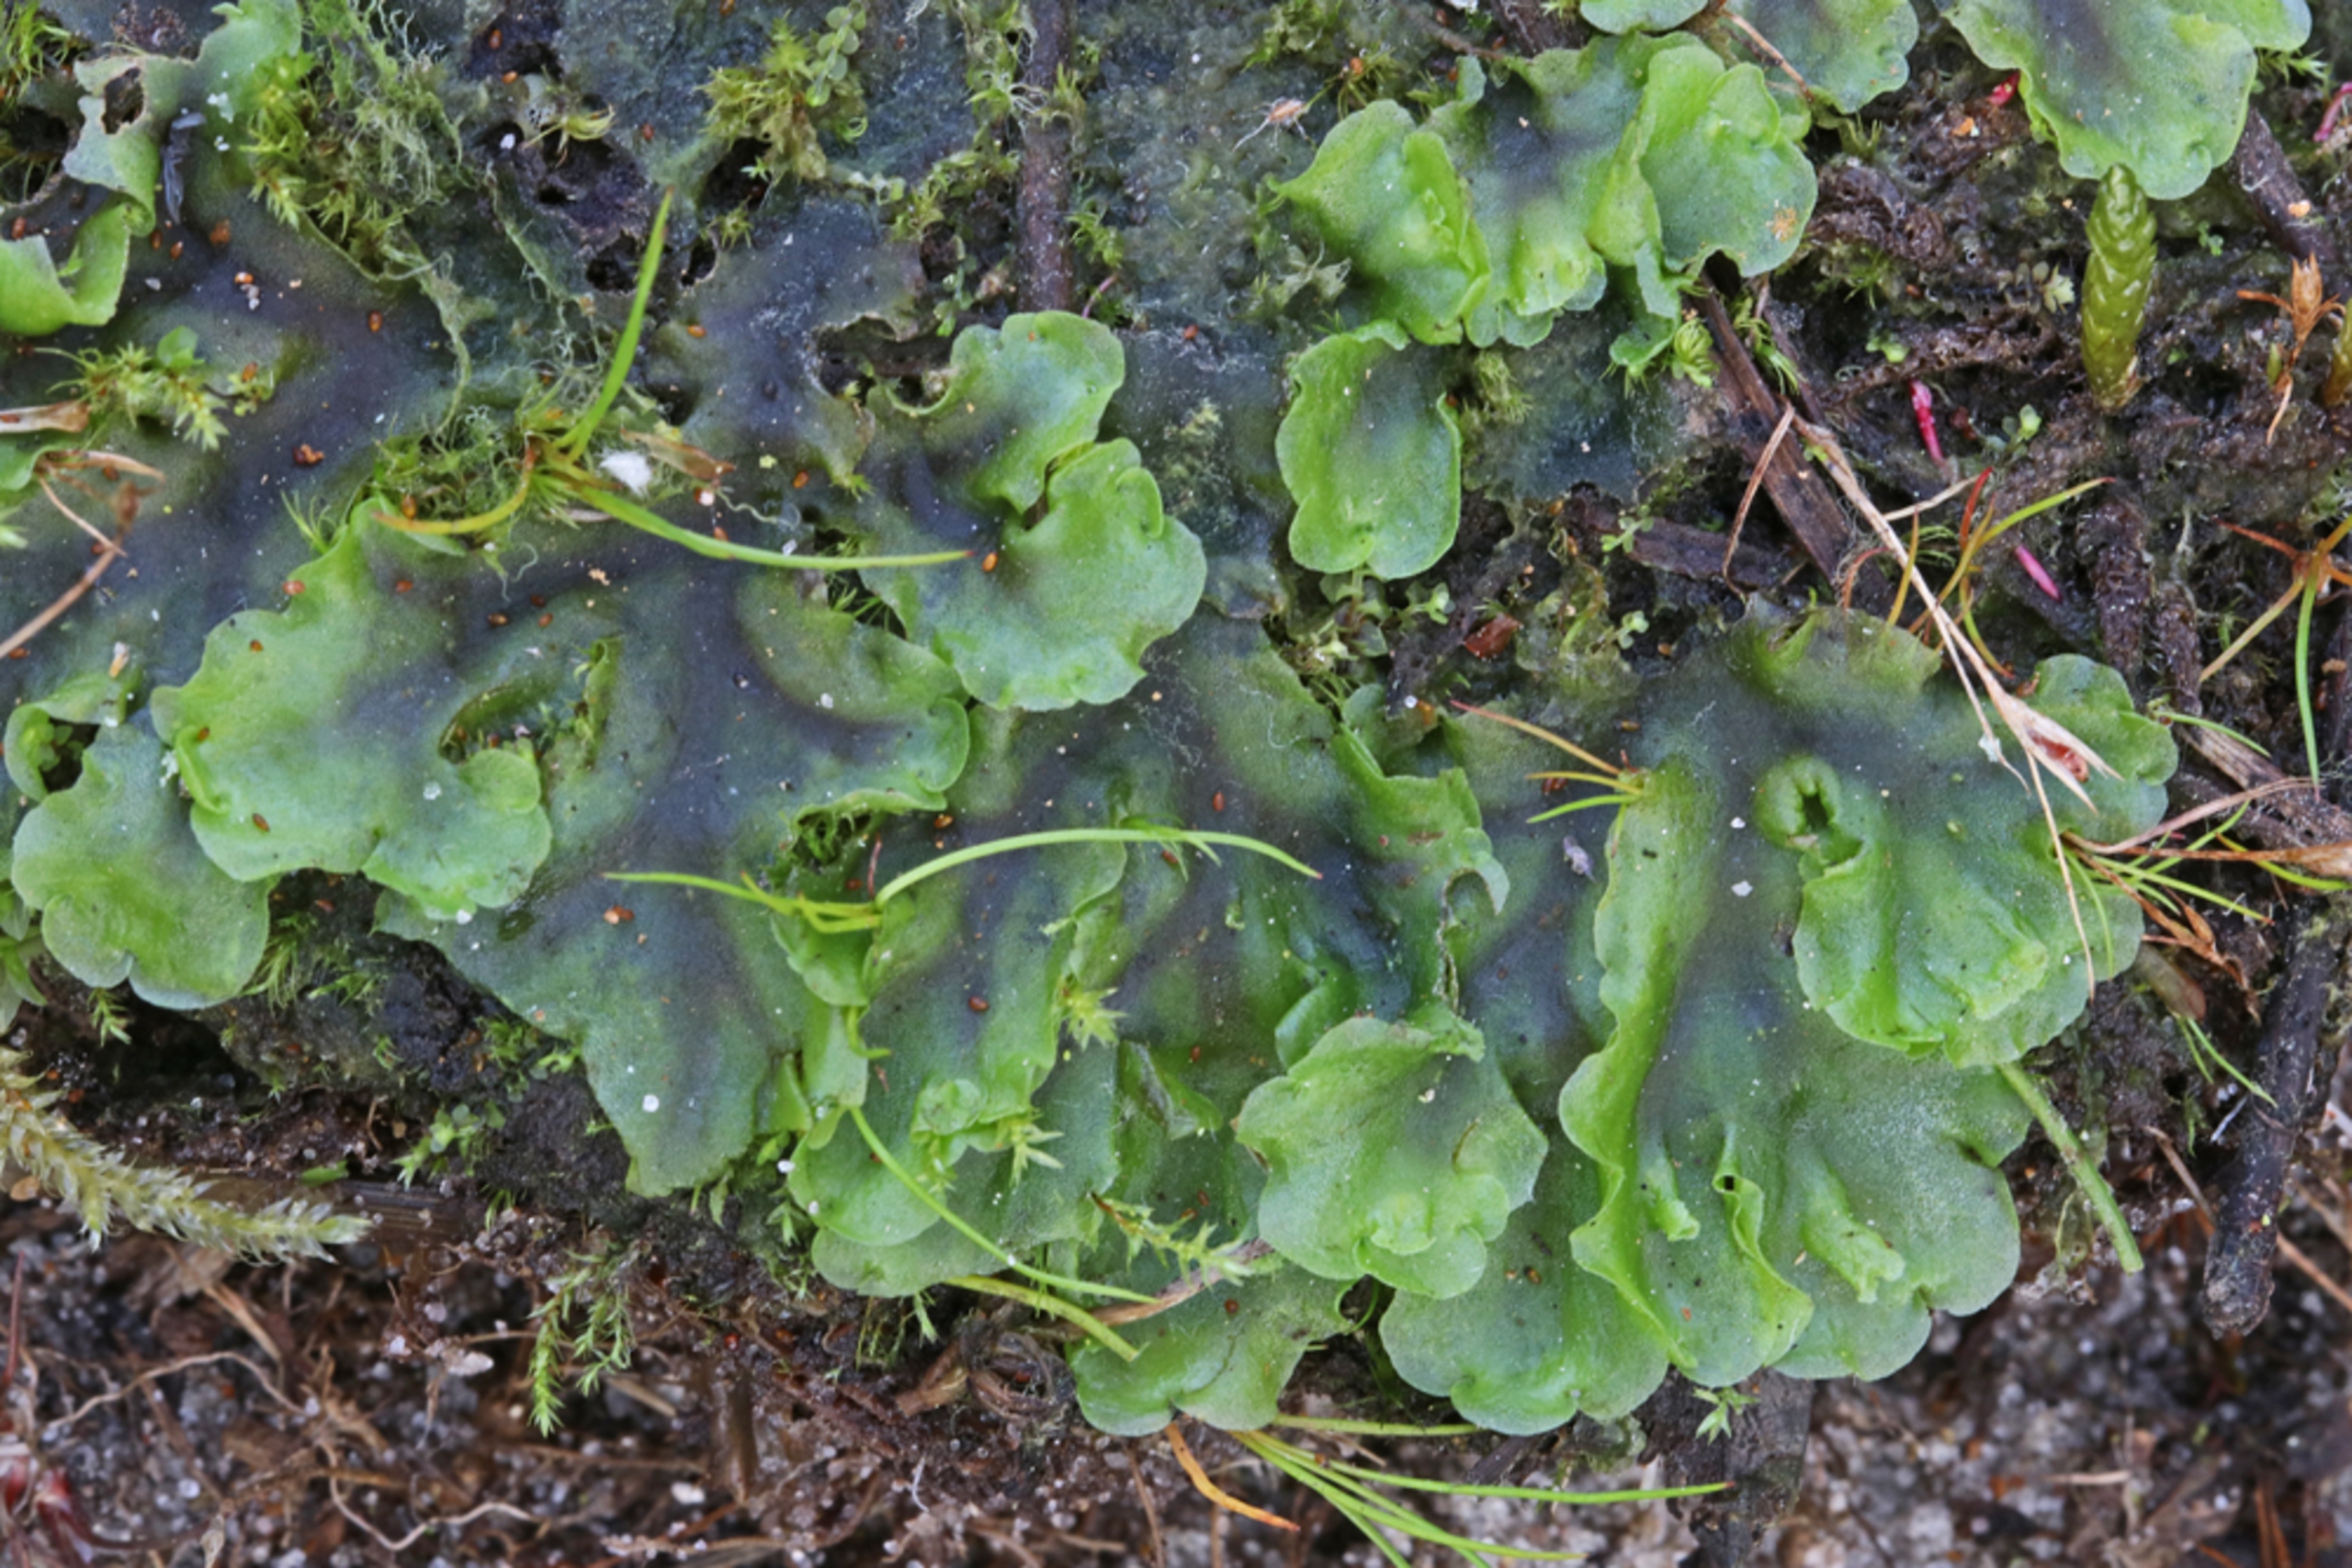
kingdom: Plantae
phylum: Marchantiophyta
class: Jungermanniopsida
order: Pelliales
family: Pelliaceae
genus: Pellia
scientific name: Pellia epiphylla
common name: Enbo ribbeløv
